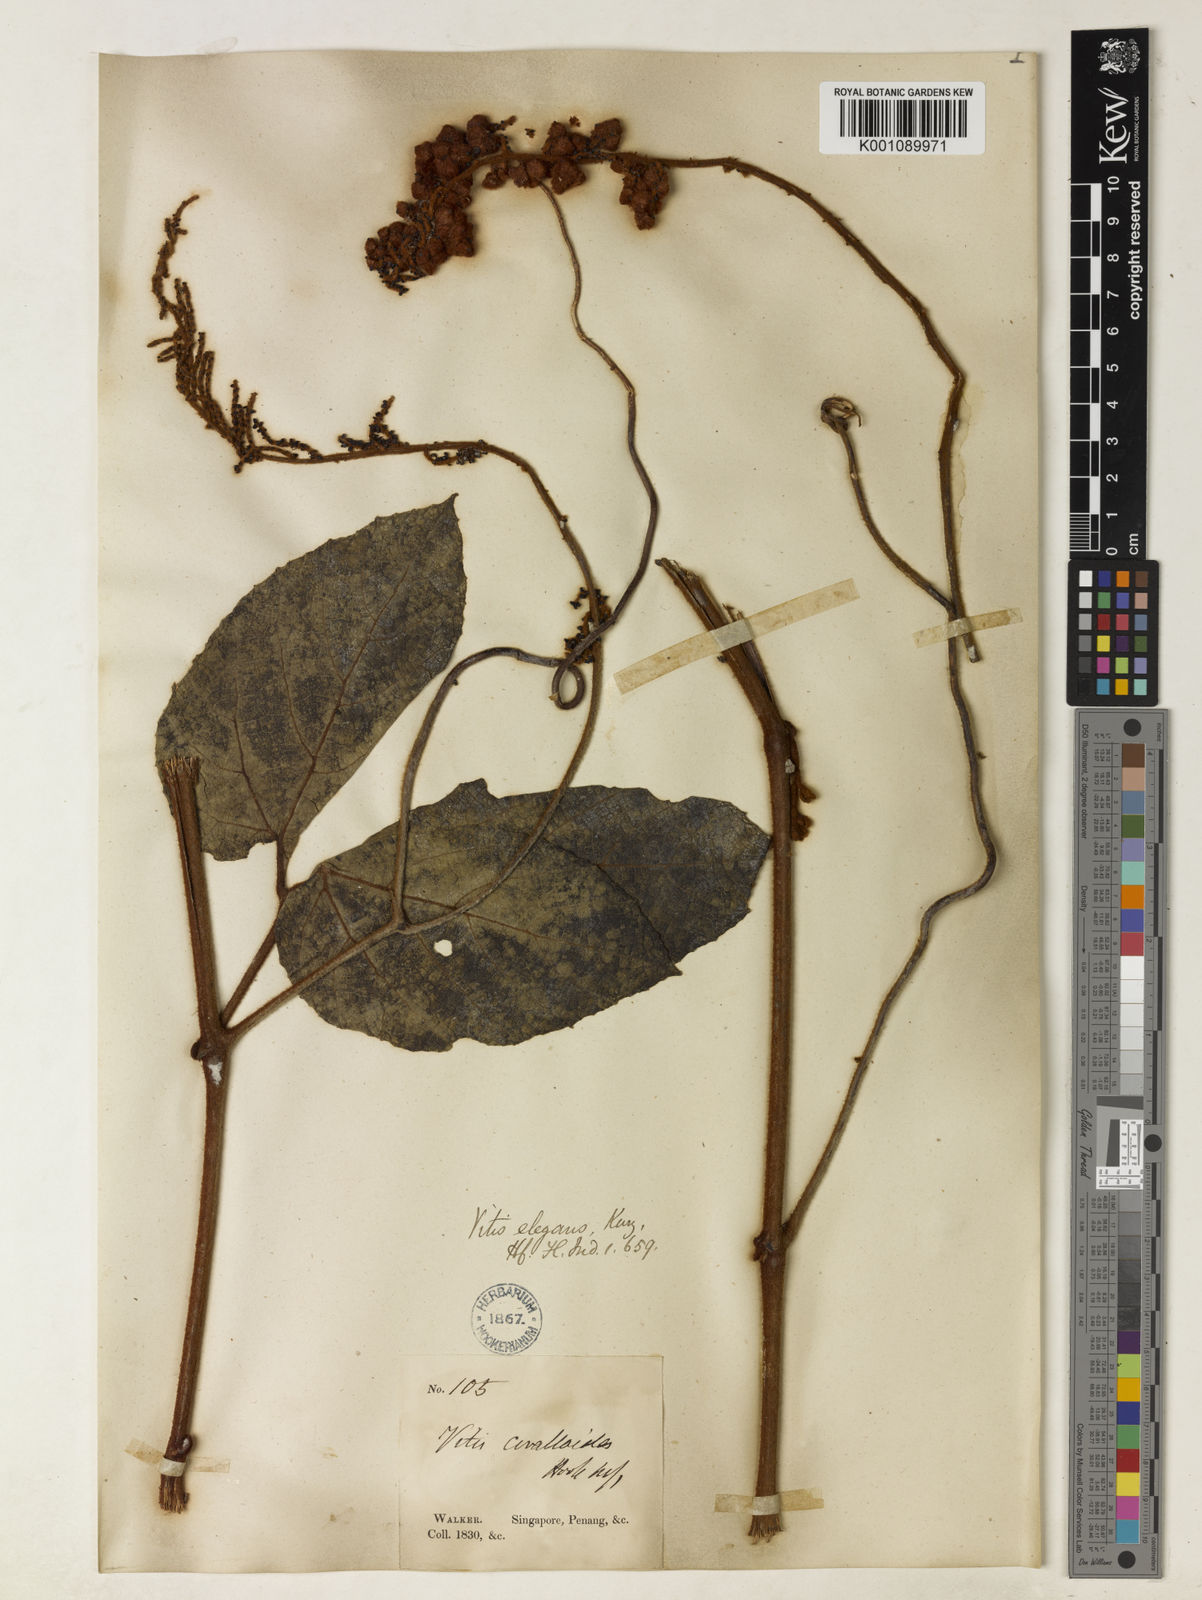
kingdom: Plantae
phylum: Tracheophyta
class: Magnoliopsida
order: Vitales
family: Vitaceae
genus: Ampelocissus
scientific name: Ampelocissus elegans
